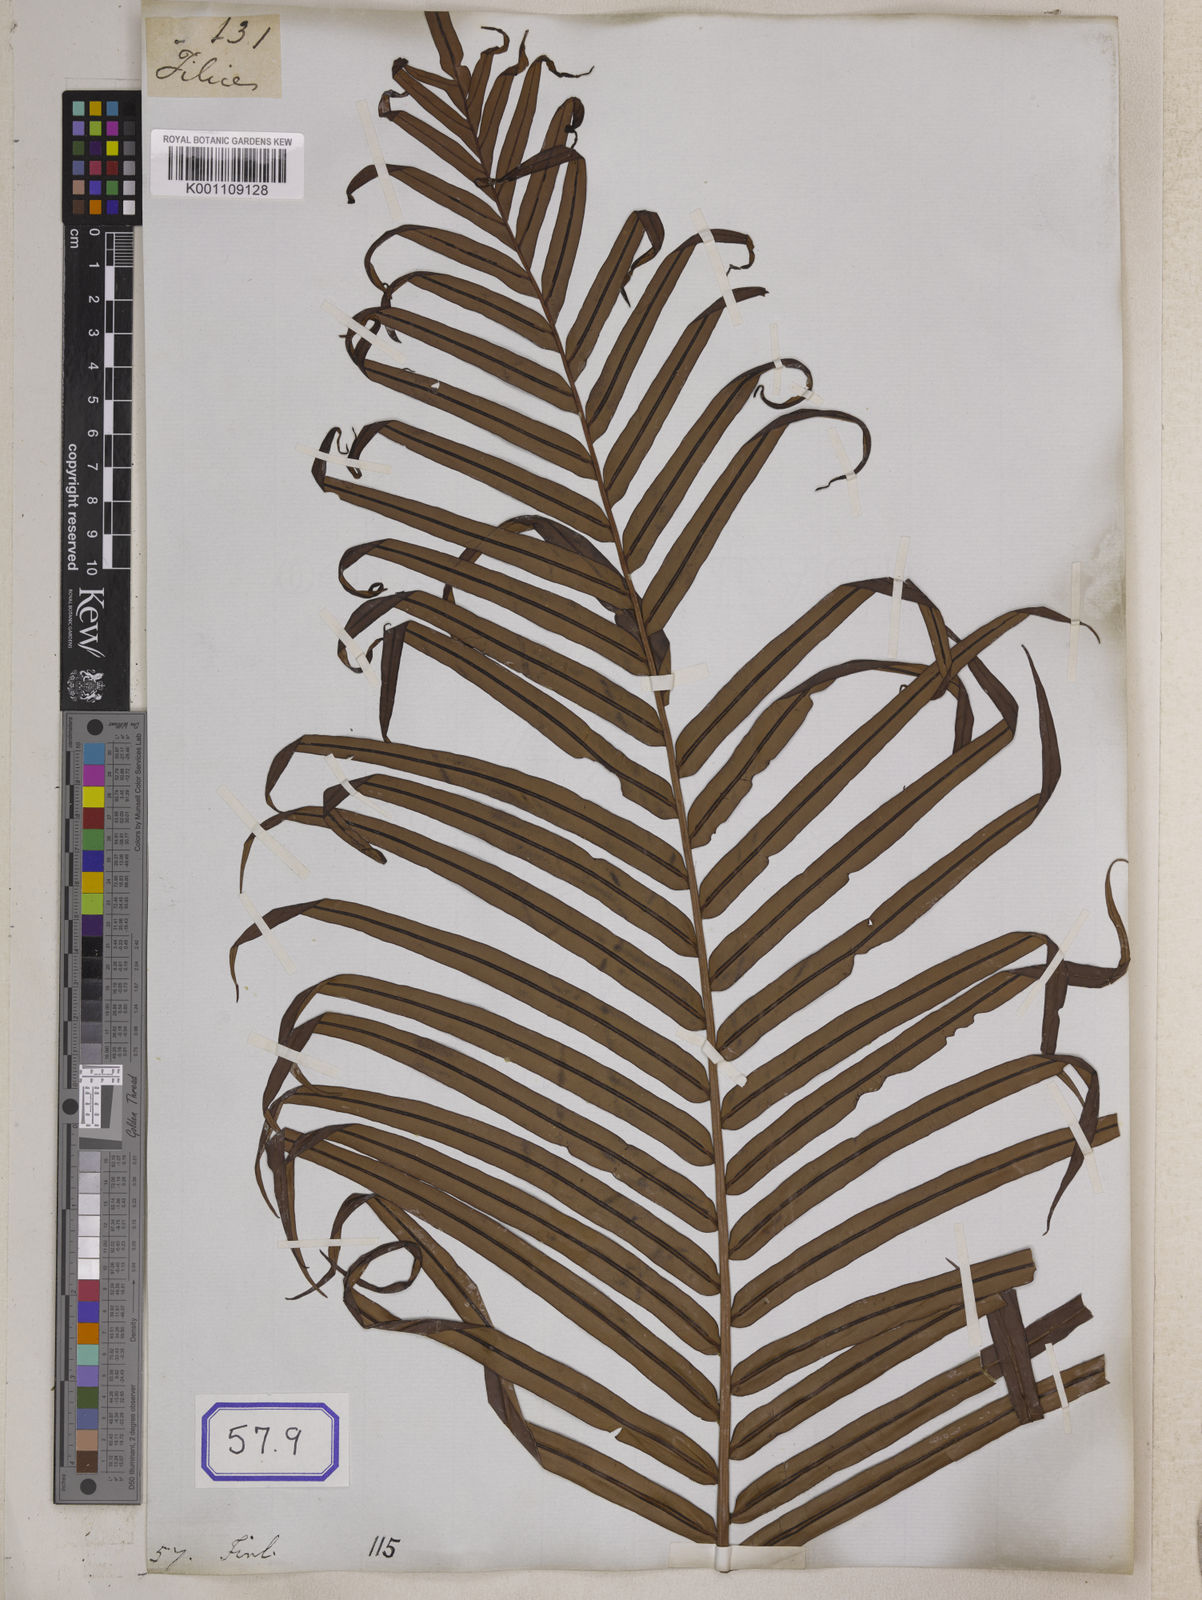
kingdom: Plantae
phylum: Tracheophyta
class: Polypodiopsida
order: Polypodiales
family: Blechnaceae
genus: Blechnopsis
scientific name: Blechnopsis orientalis
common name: Oriental blechnum
